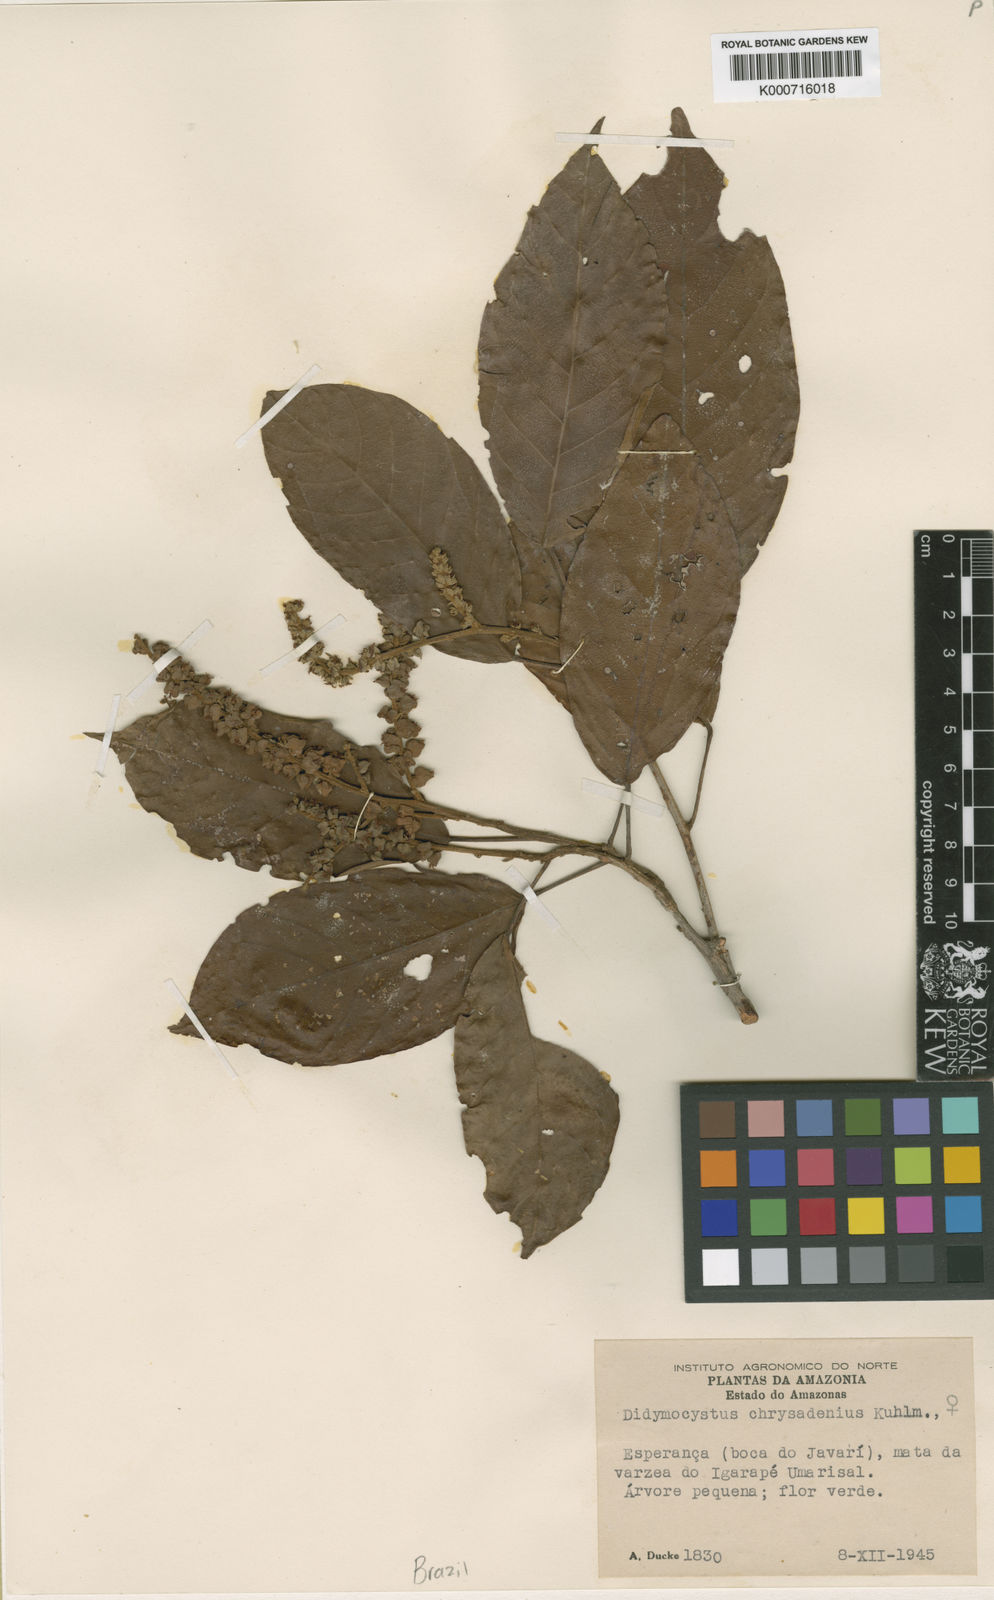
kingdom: Plantae
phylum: Tracheophyta
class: Magnoliopsida
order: Malpighiales
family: Phyllanthaceae
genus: Didymocistus
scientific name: Didymocistus chrysadenius
